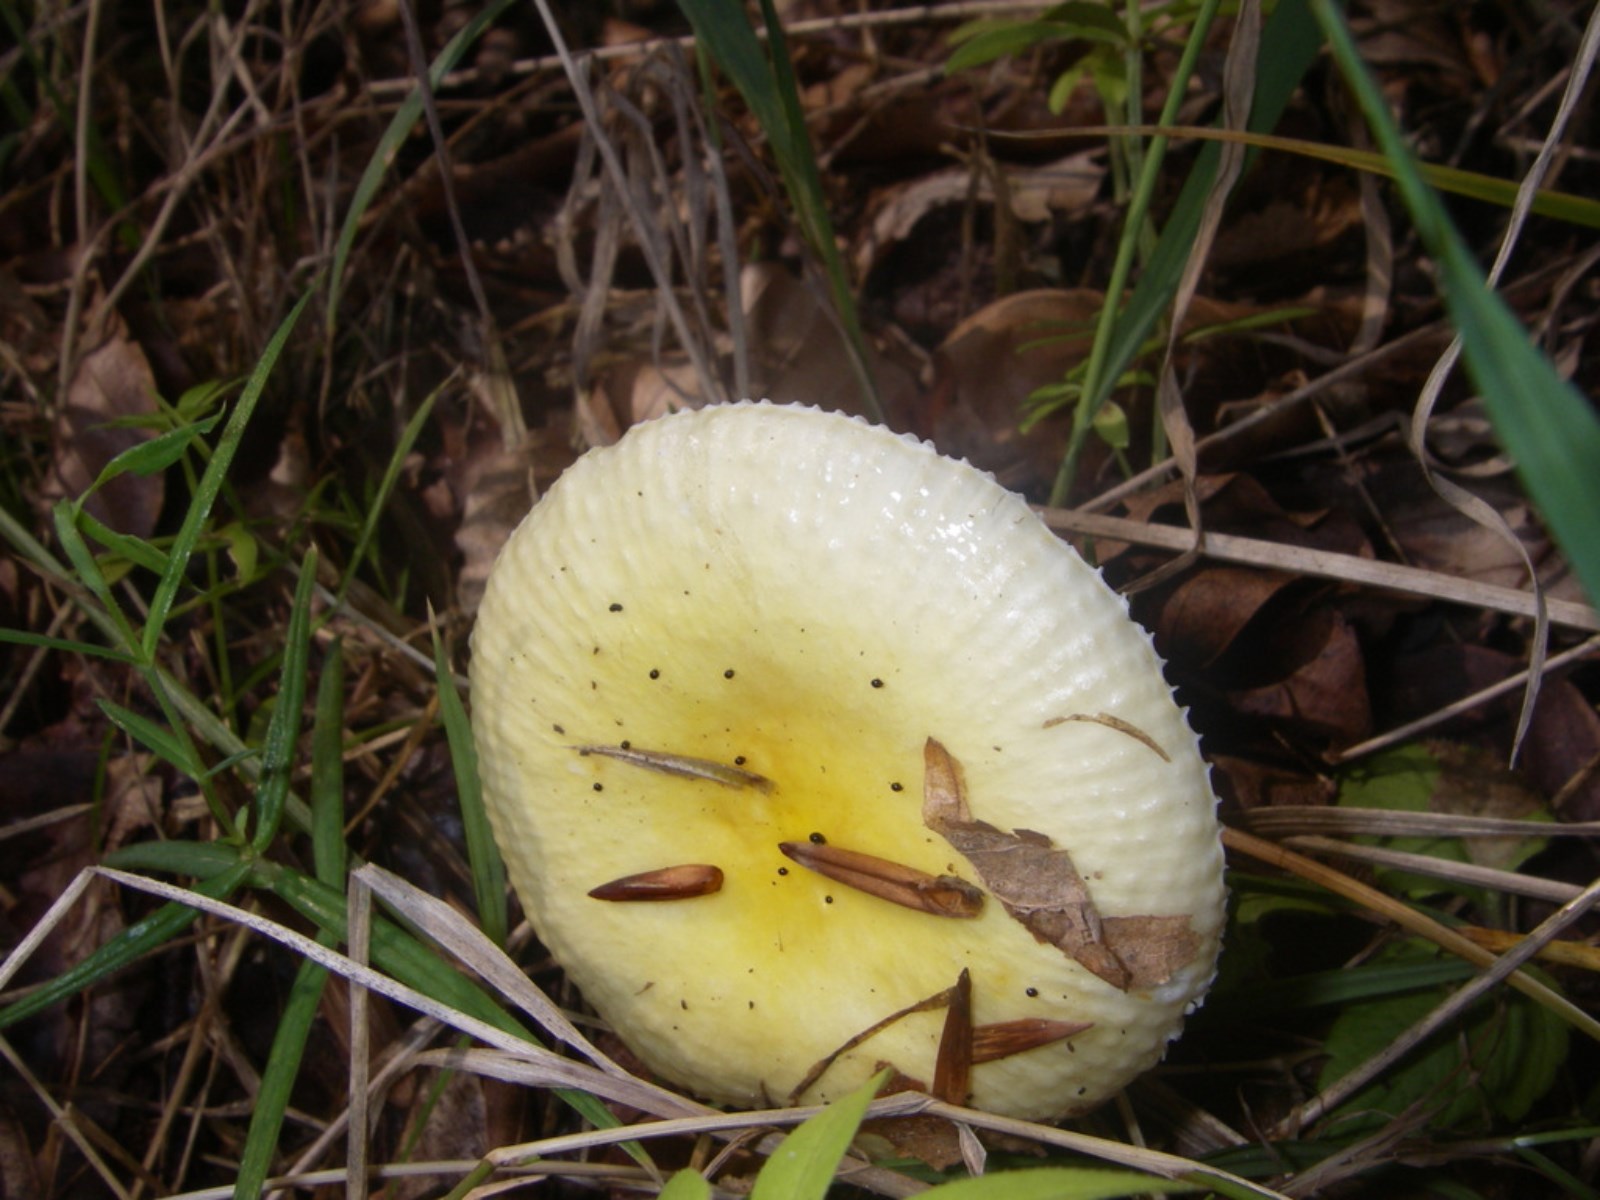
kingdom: Fungi
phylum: Basidiomycota
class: Agaricomycetes
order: Russulales
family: Russulaceae
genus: Russula
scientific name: Russula solaris
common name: sol-skørhat
